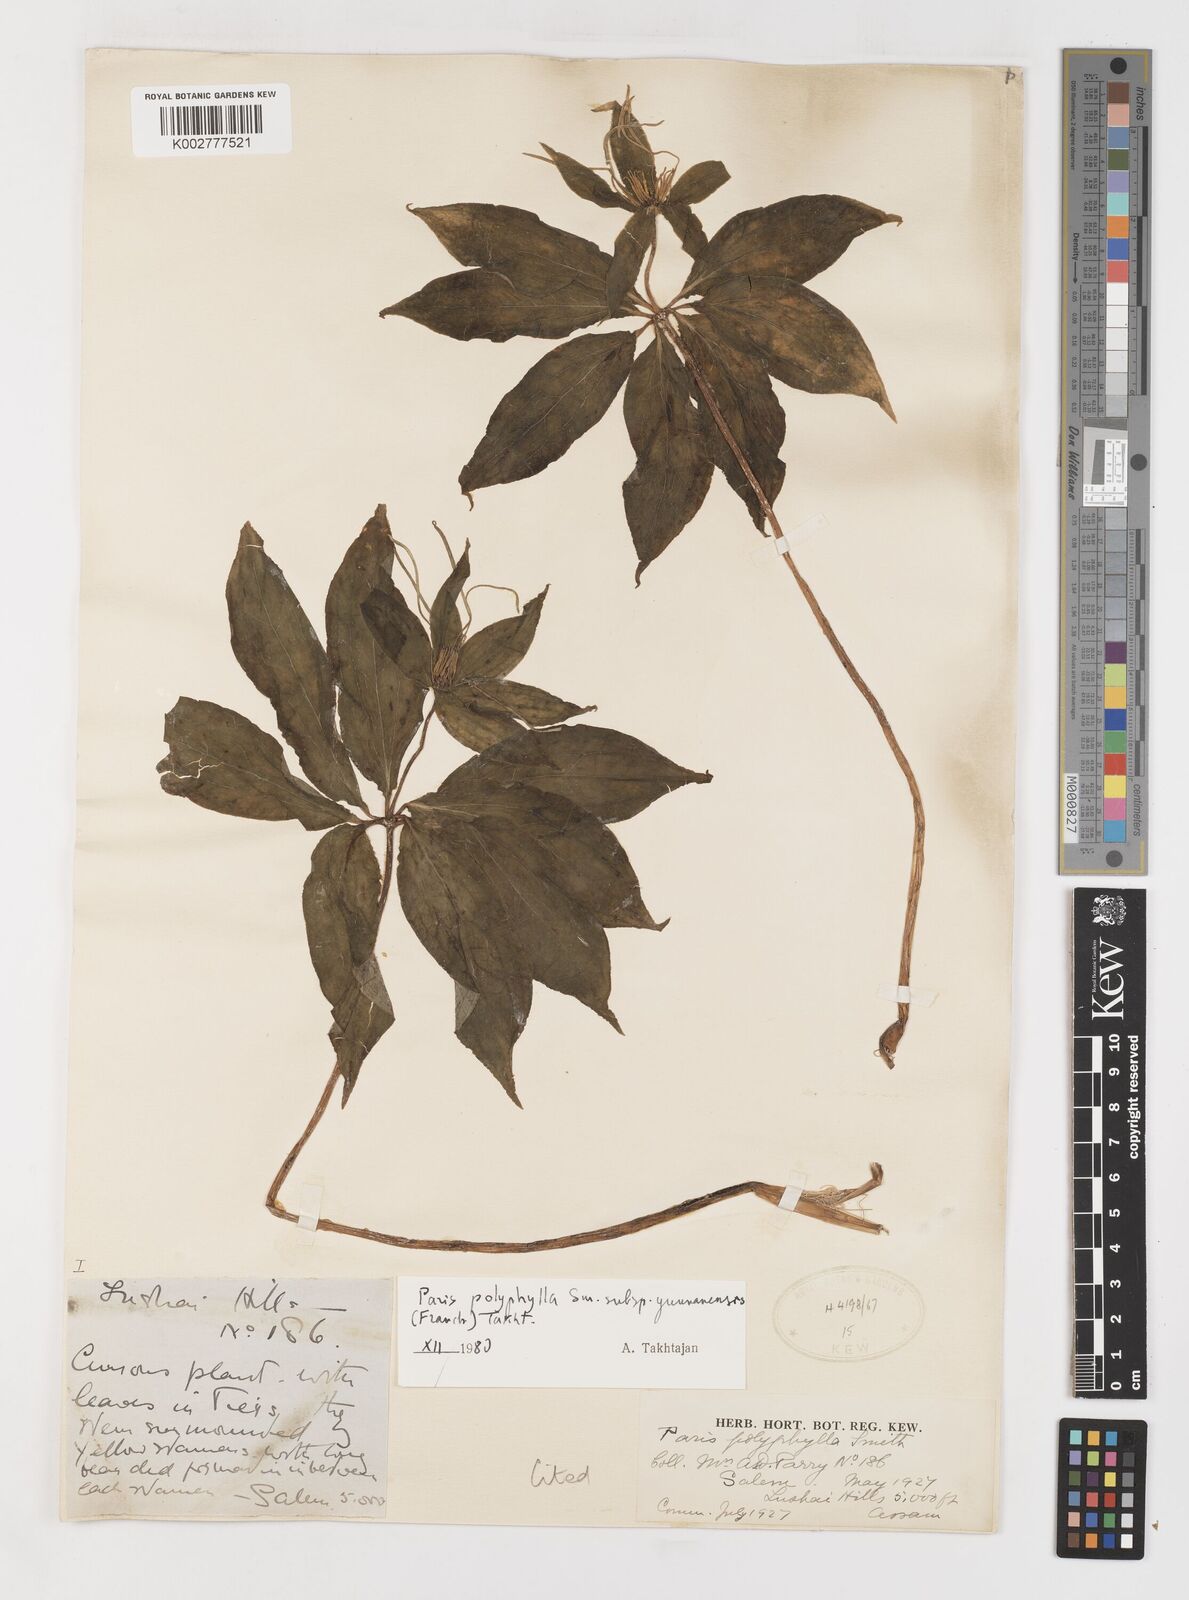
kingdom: Plantae
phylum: Tracheophyta
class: Liliopsida
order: Liliales
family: Melanthiaceae
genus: Paris
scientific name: Paris yunnanensis
